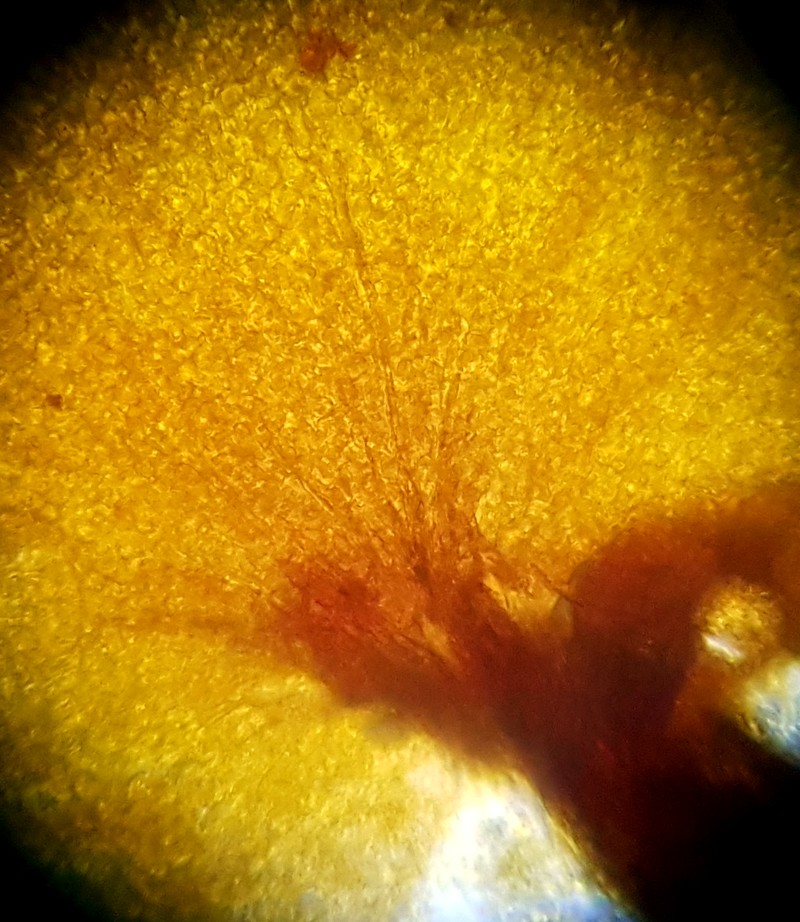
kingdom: Protozoa
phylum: Mycetozoa
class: Myxomycetes
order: Cribrariales
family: Cribrariaceae
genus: Cribraria
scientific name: Cribraria aurantiaca
